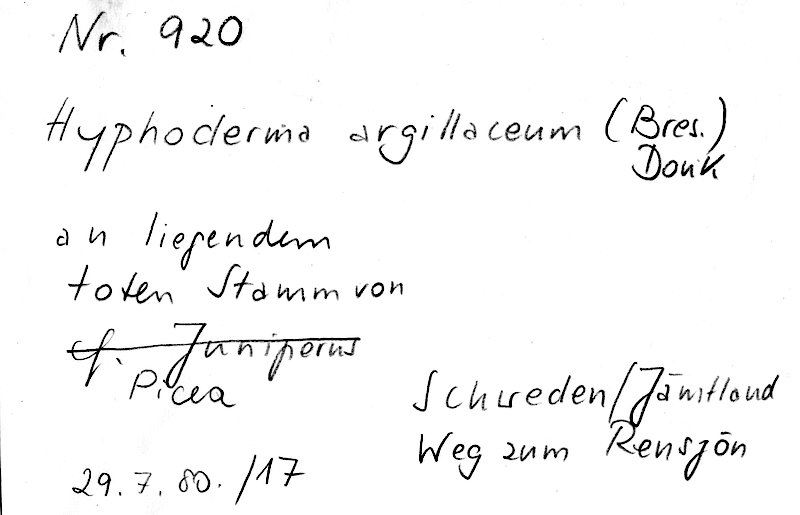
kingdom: Fungi
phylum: Basidiomycota
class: Agaricomycetes
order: Hymenochaetales
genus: Kurtia
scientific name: Kurtia argillacea
